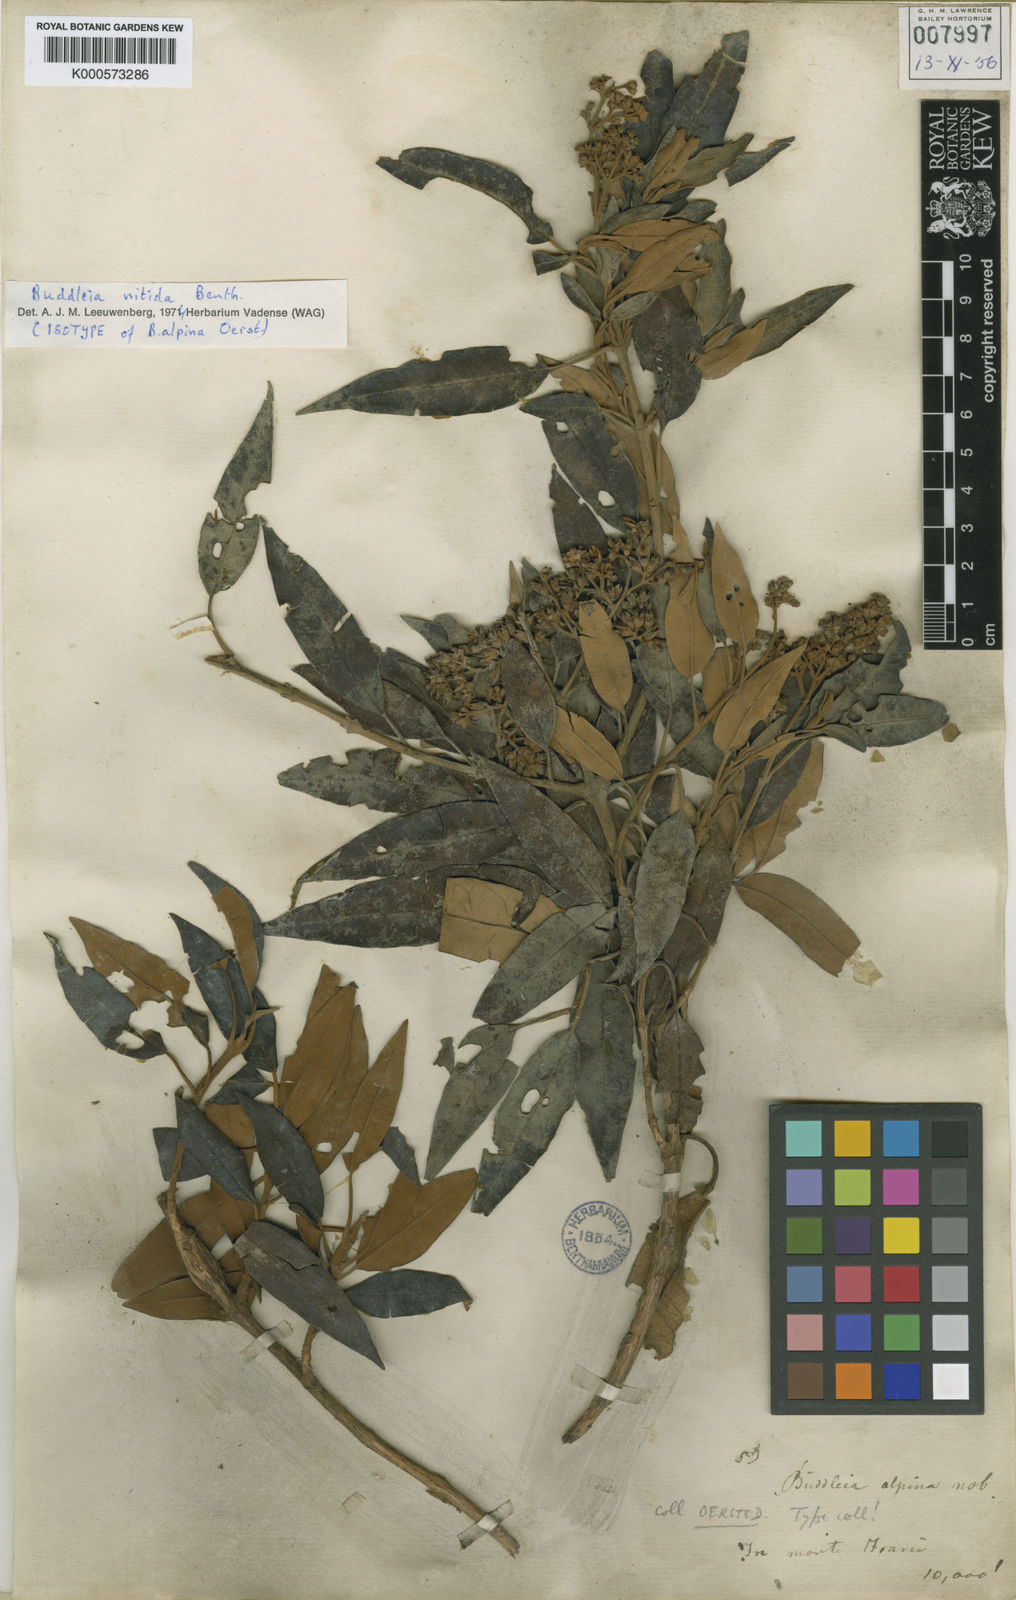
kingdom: Plantae
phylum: Tracheophyta
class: Magnoliopsida
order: Lamiales
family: Scrophulariaceae
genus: Buddleja
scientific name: Buddleja nitida
